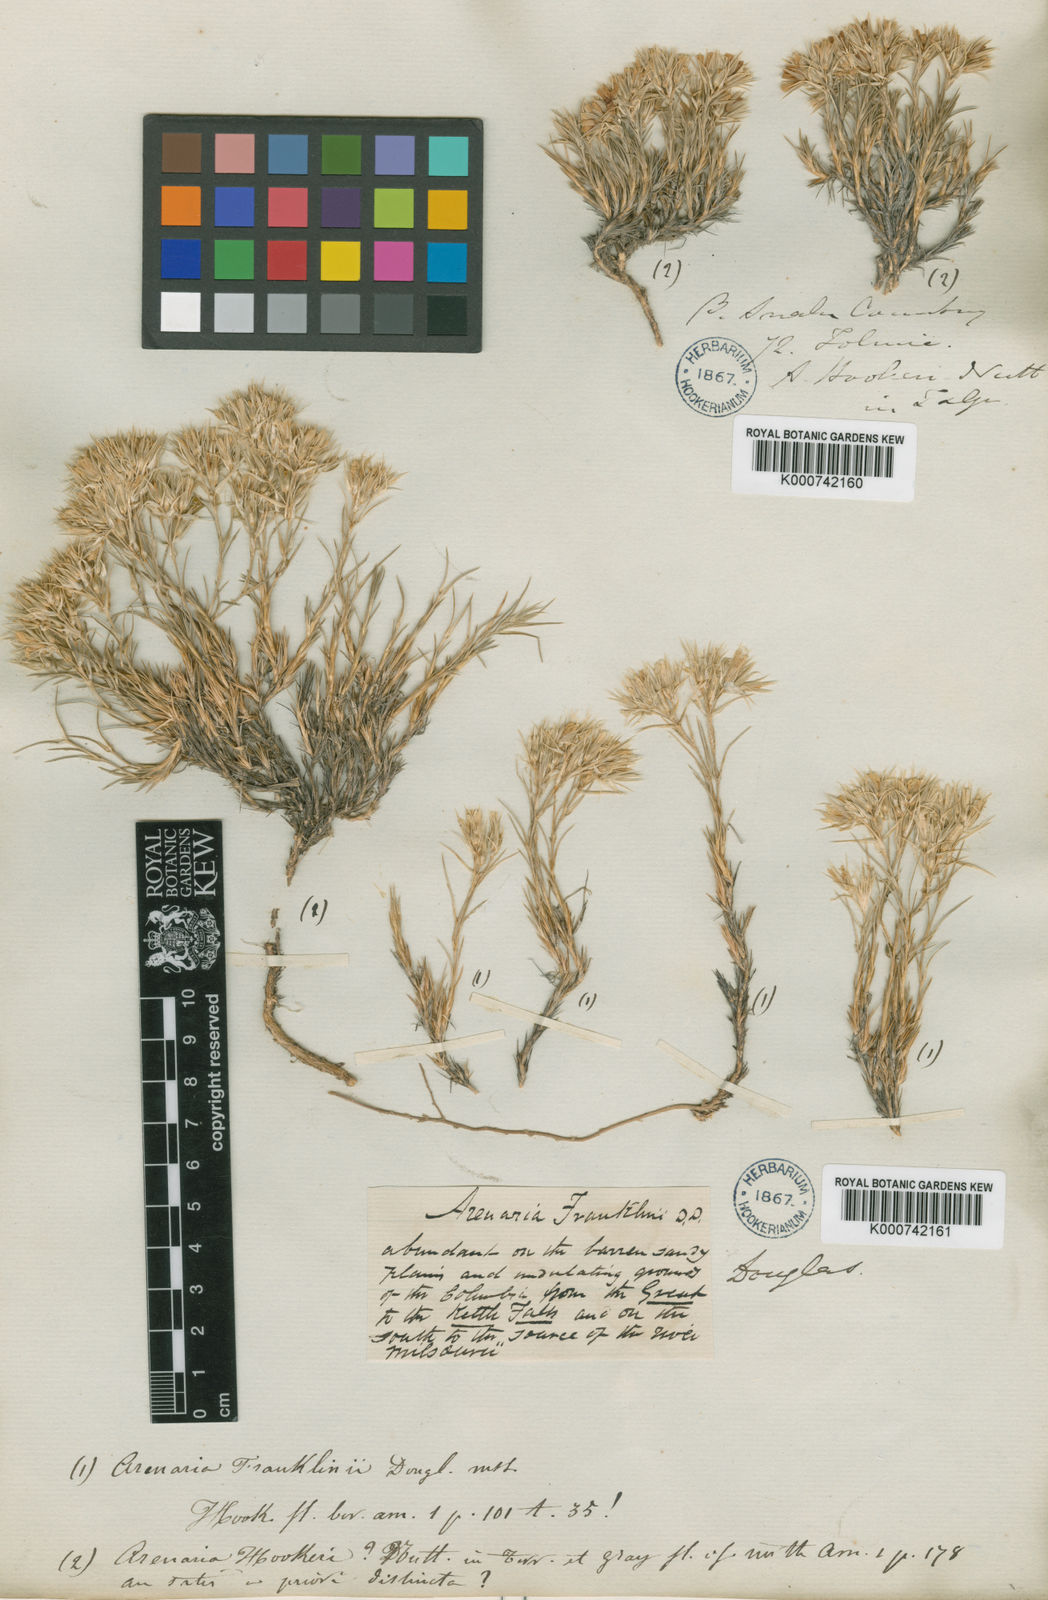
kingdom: Plantae
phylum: Tracheophyta
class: Magnoliopsida
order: Caryophyllales
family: Caryophyllaceae
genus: Eremogone
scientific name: Eremogone franklinii
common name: Franklin's sandwort
